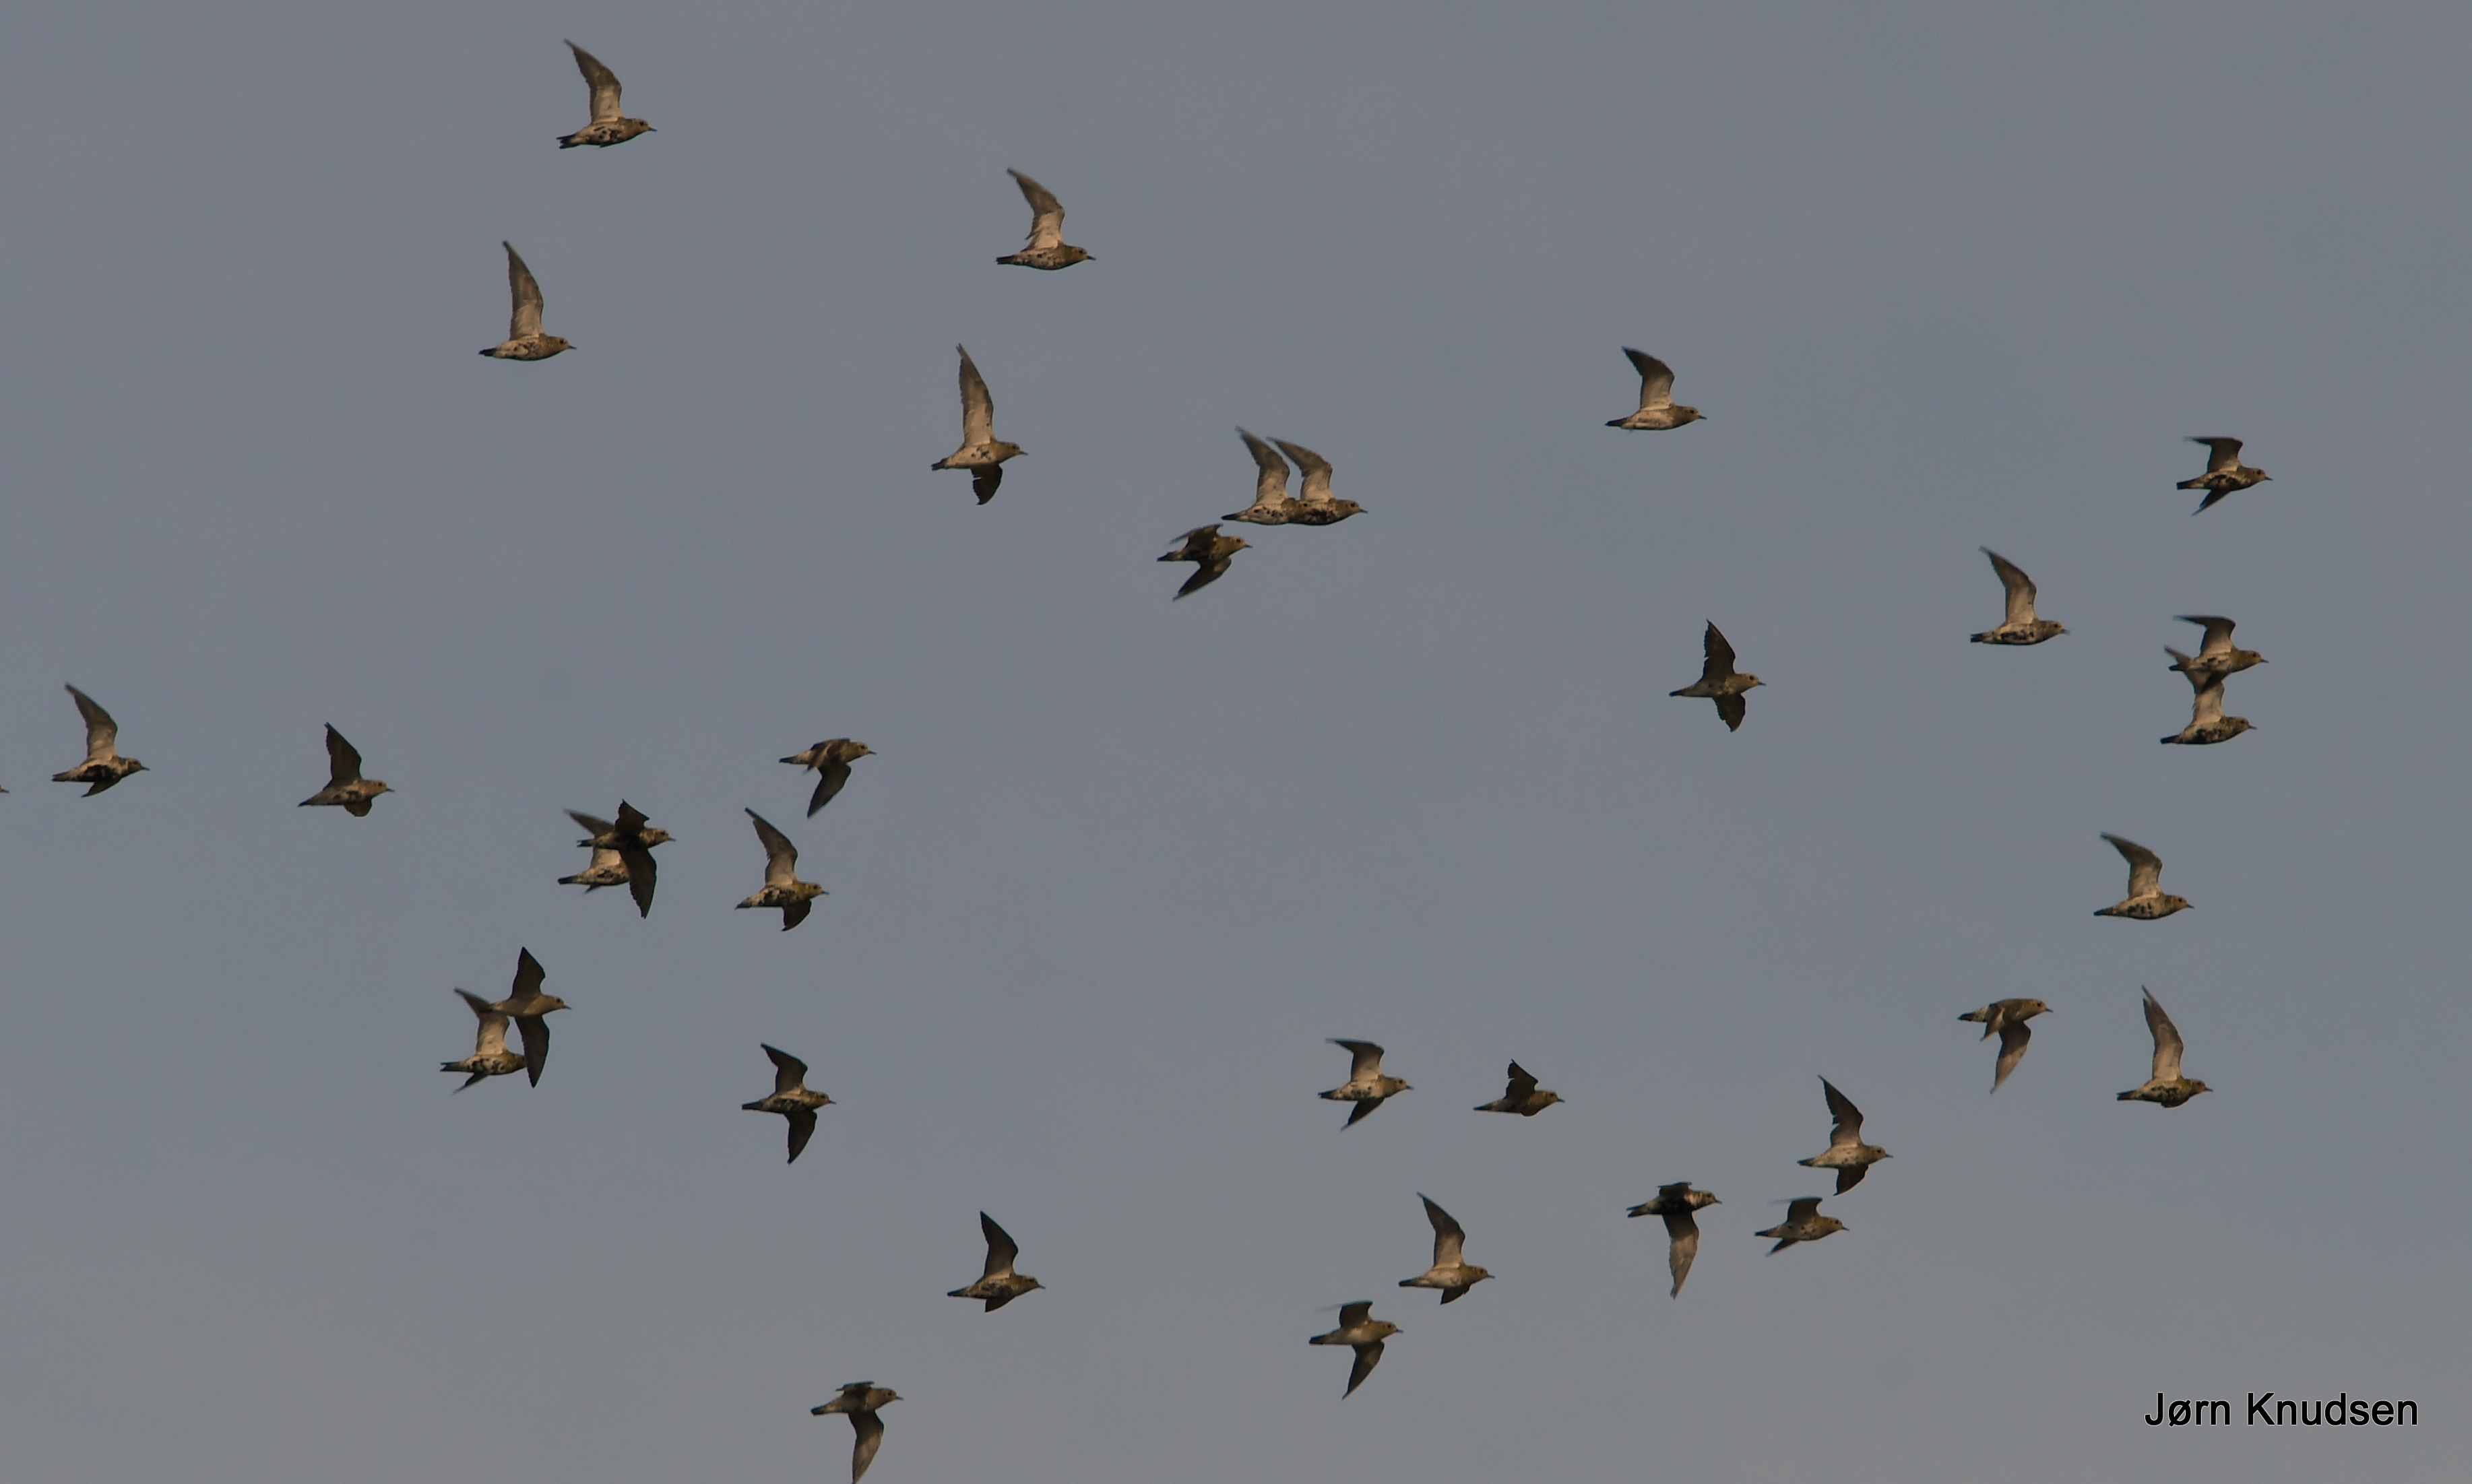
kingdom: Animalia
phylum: Chordata
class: Aves
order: Charadriiformes
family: Charadriidae
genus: Pluvialis
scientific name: Pluvialis apricaria
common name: Hjejle
